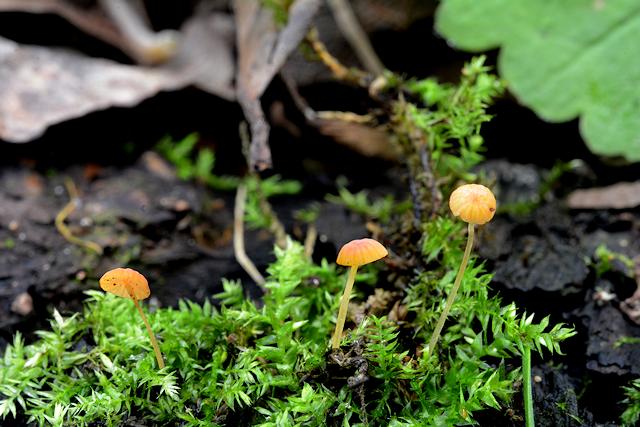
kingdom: Fungi
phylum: Basidiomycota
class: Agaricomycetes
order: Agaricales
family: Mycenaceae
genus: Mycena
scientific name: Mycena acicula
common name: orange huesvamp
